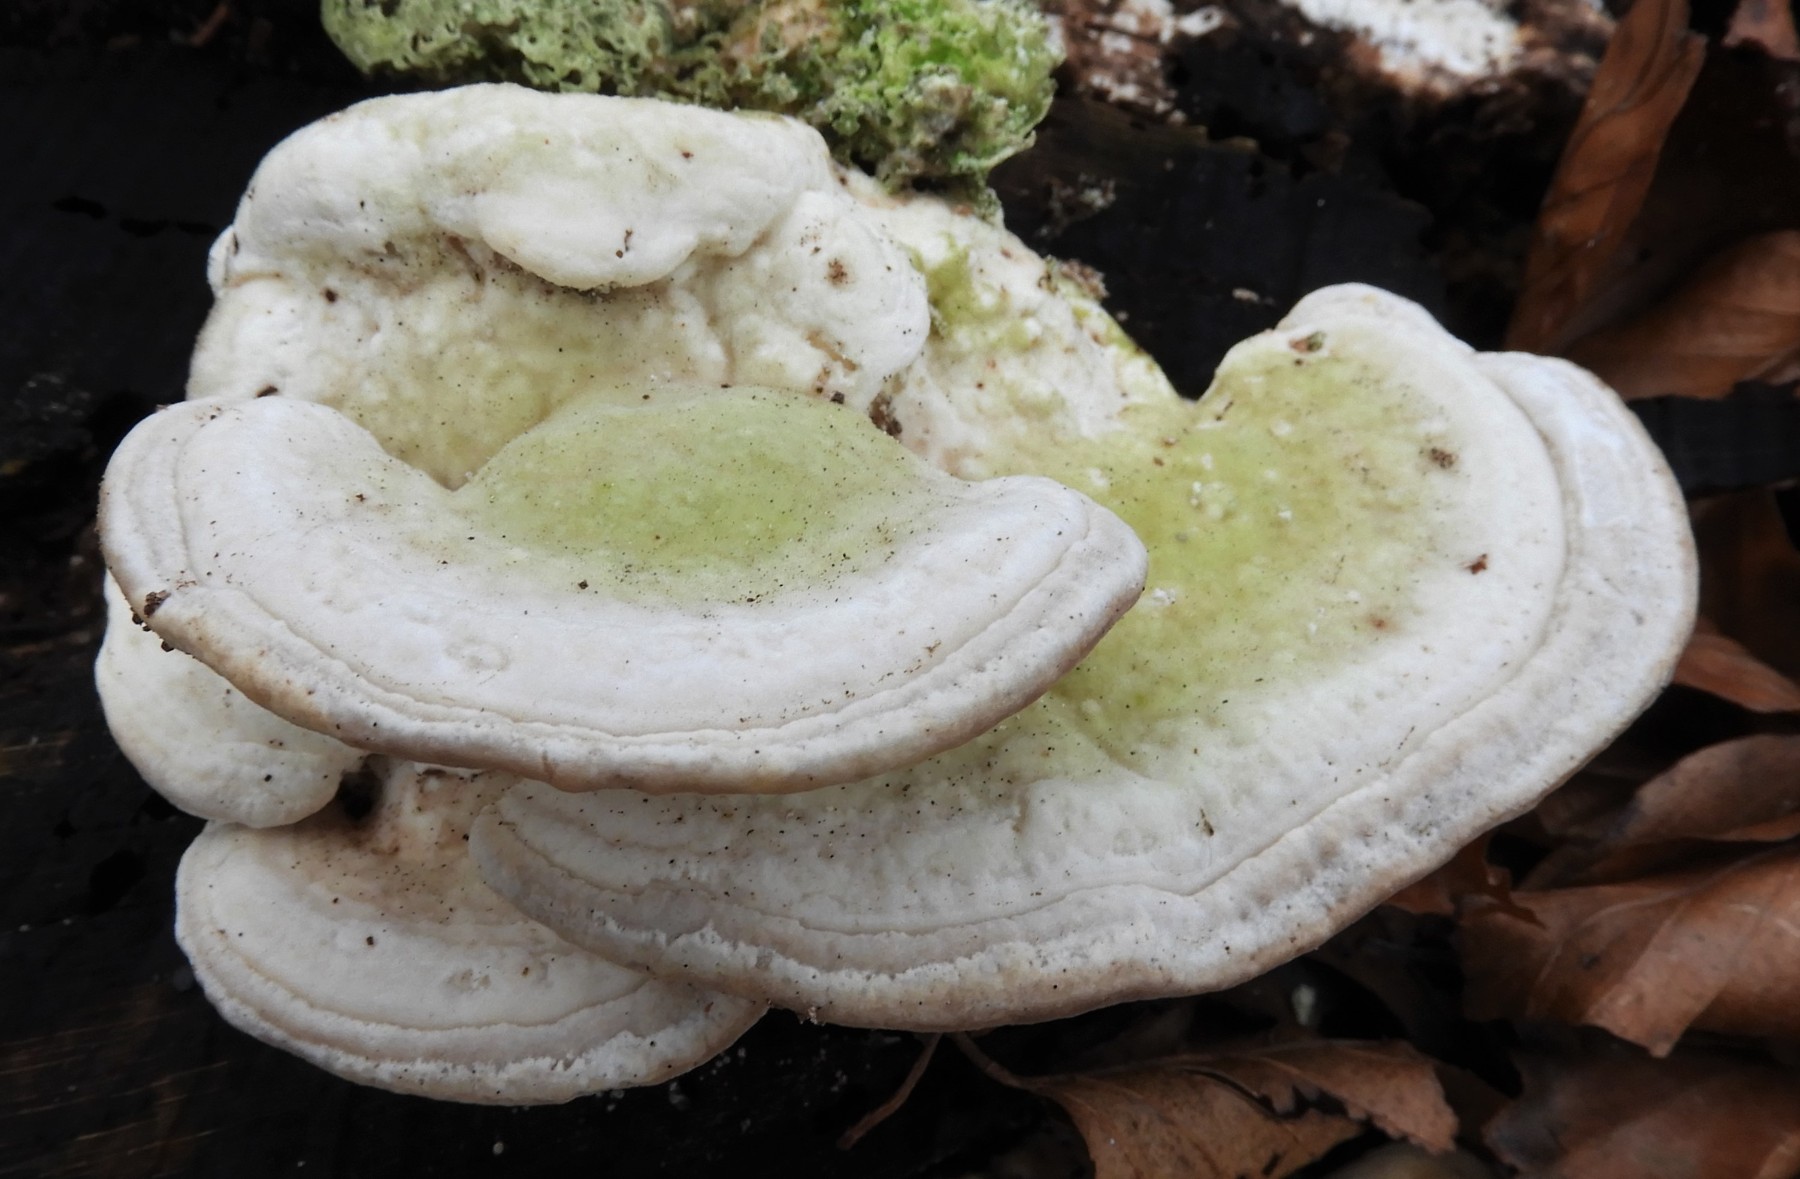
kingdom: Fungi
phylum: Basidiomycota
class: Agaricomycetes
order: Polyporales
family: Polyporaceae
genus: Trametes
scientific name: Trametes gibbosa
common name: puklet læderporesvamp
